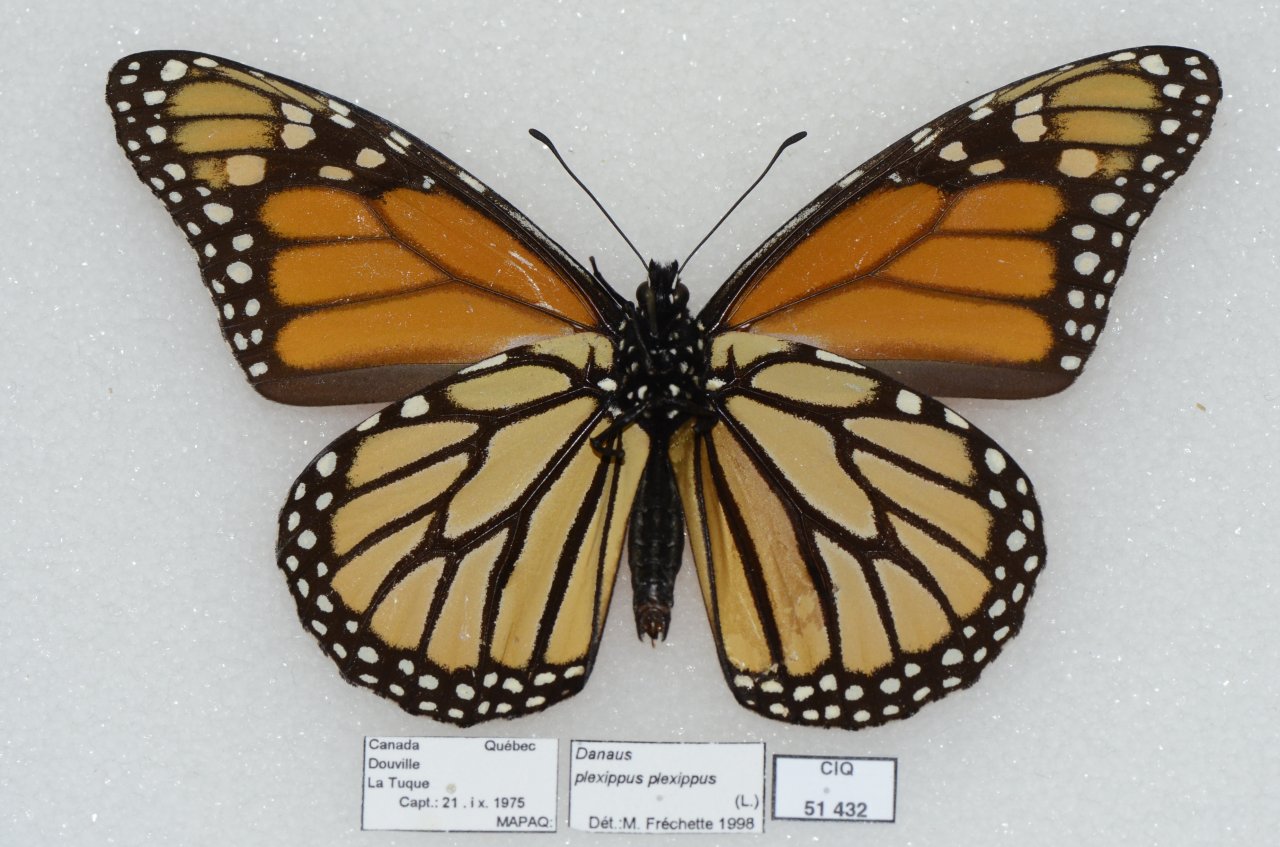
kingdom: Animalia
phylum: Arthropoda
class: Insecta
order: Lepidoptera
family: Nymphalidae
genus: Danaus
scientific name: Danaus plexippus
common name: Monarch
